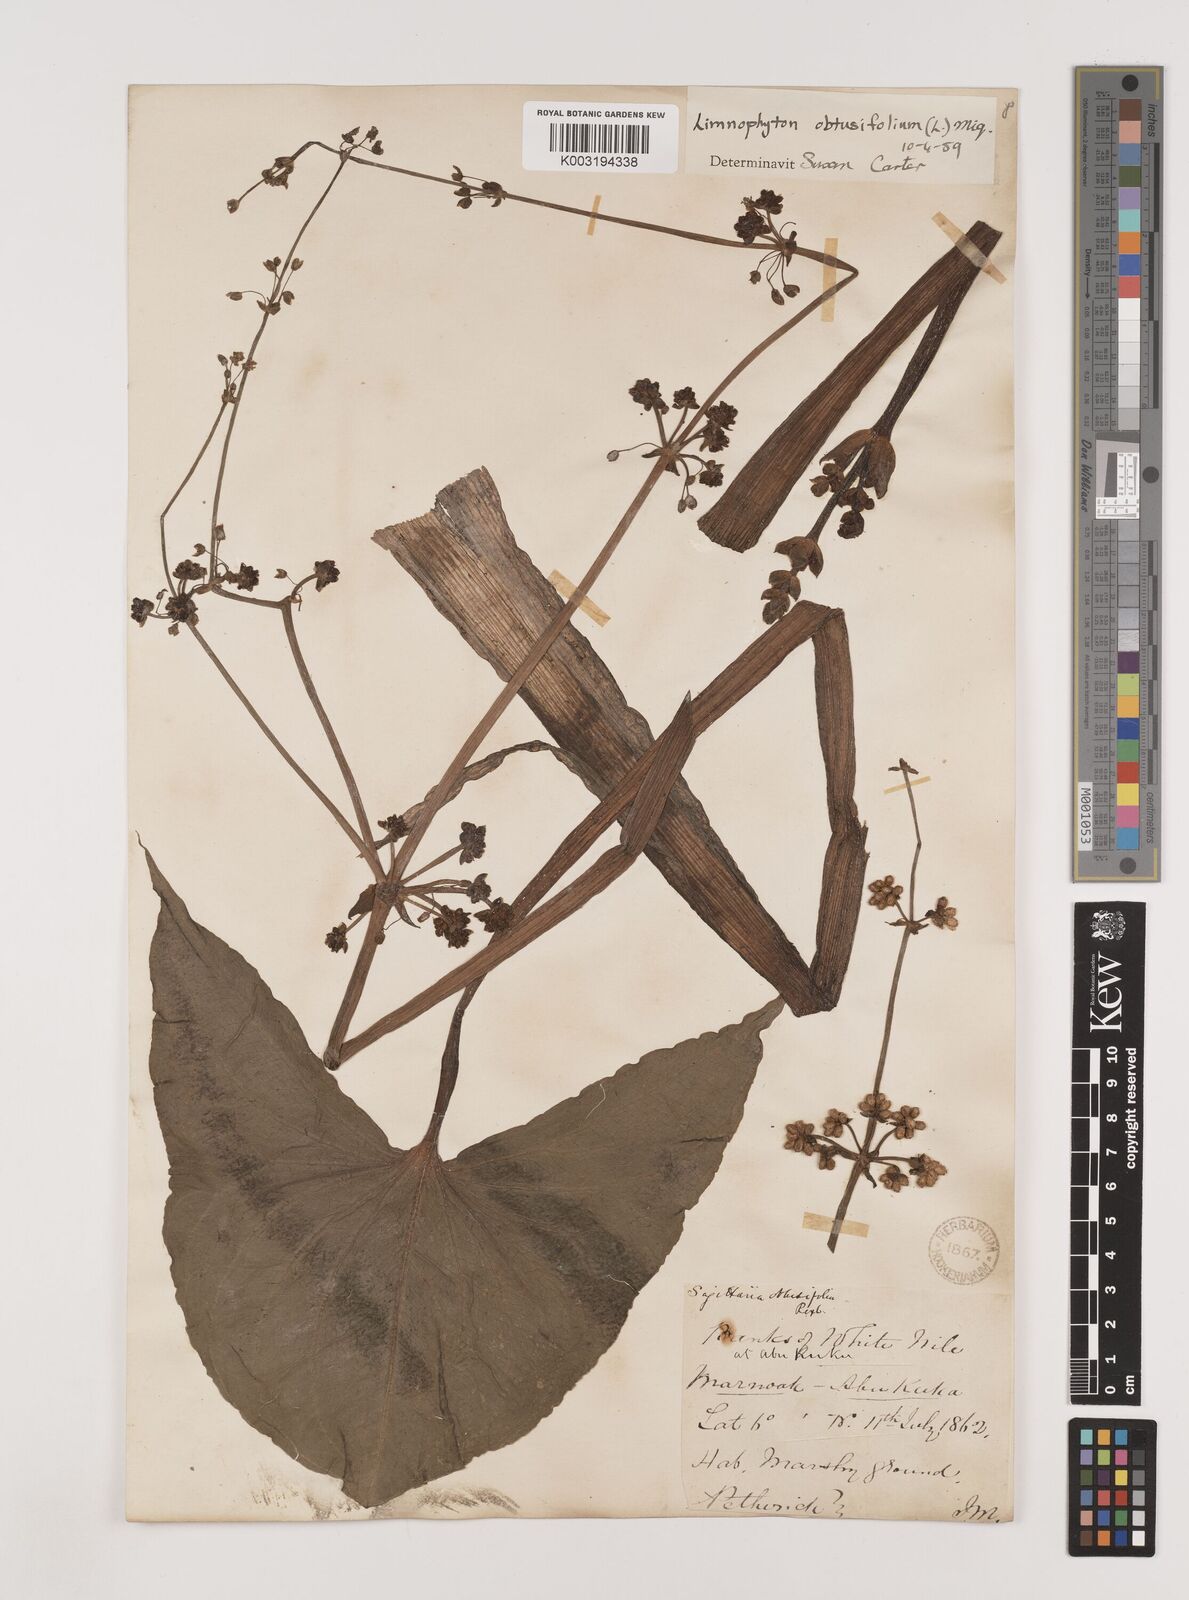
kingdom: Plantae
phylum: Tracheophyta
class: Liliopsida
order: Alismatales
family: Alismataceae
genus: Limnophyton
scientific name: Limnophyton obtusifolium
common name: Arrow head
